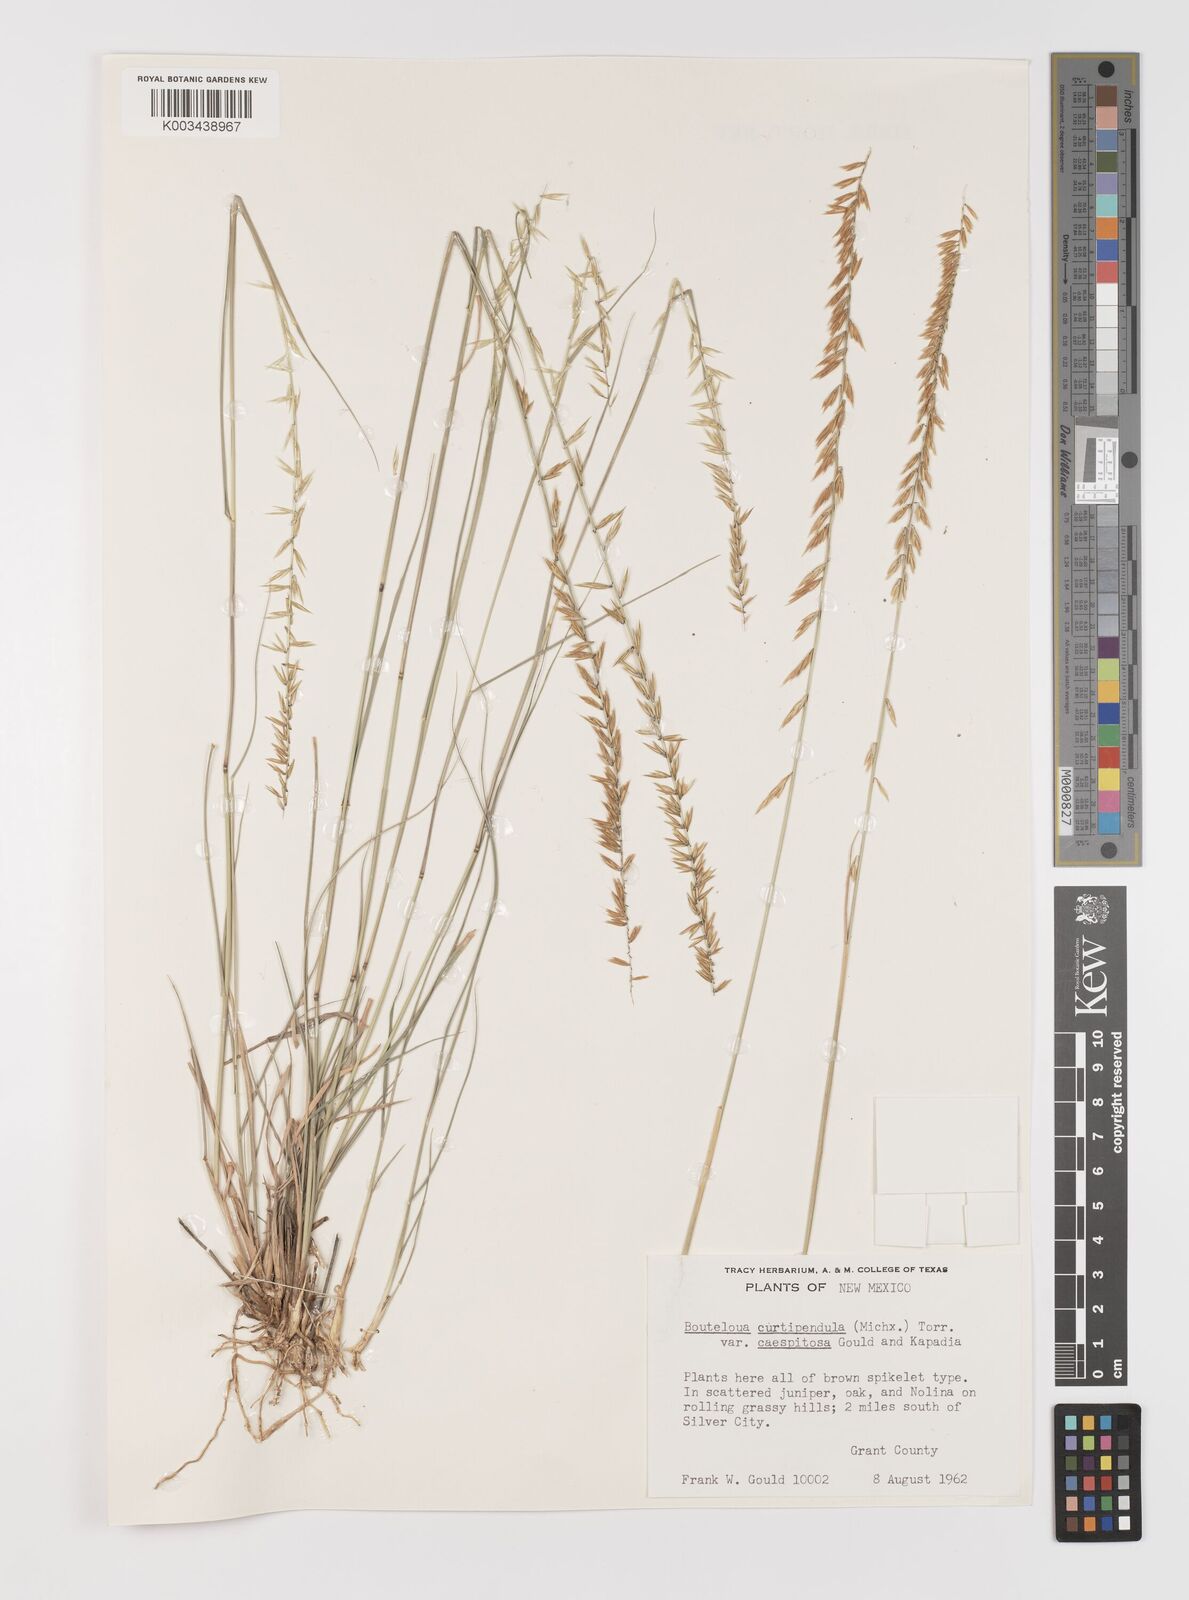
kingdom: Plantae
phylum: Tracheophyta
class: Liliopsida
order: Poales
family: Poaceae
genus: Bouteloua
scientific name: Bouteloua curtipendula
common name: Side-oats grama
